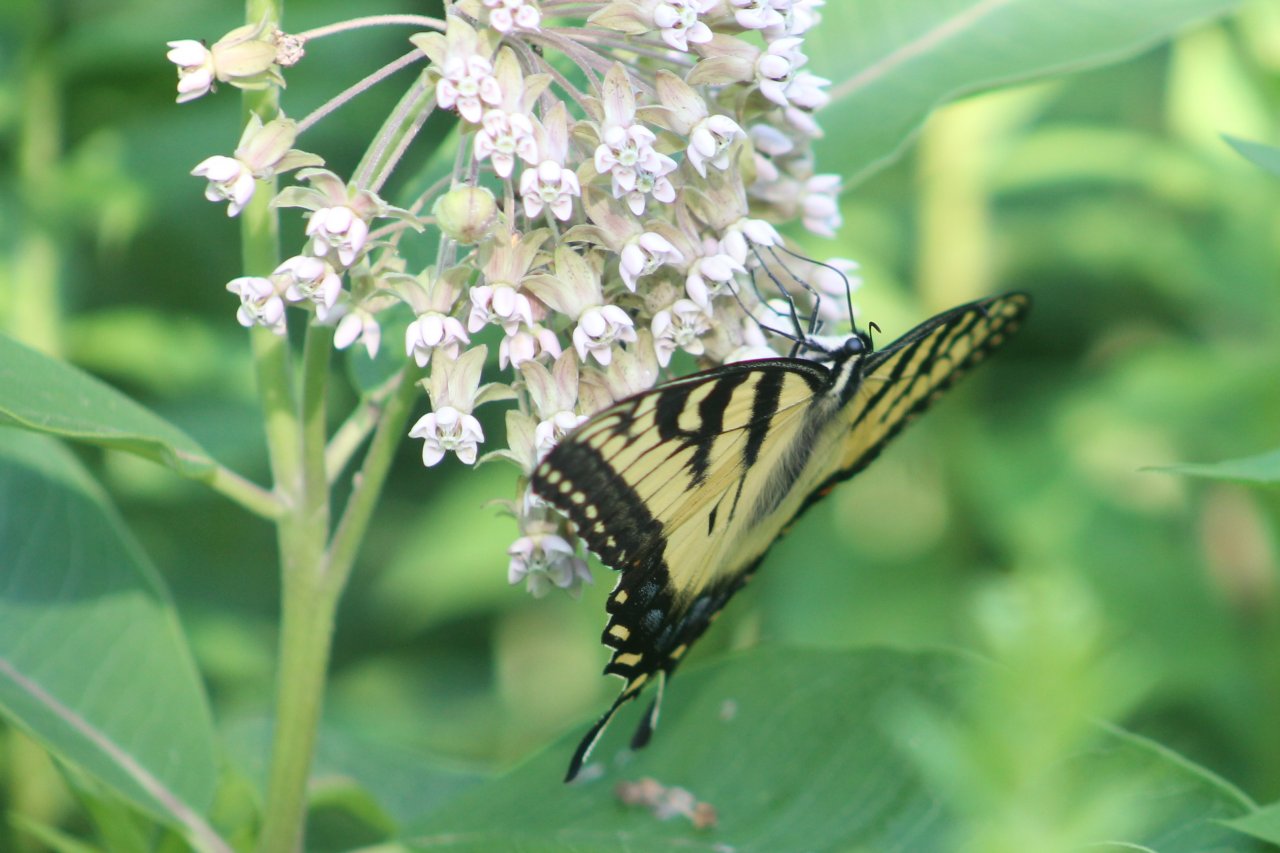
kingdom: Animalia
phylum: Arthropoda
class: Insecta
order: Lepidoptera
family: Papilionidae
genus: Pterourus
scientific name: Pterourus glaucus
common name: Eastern Tiger Swallowtail
